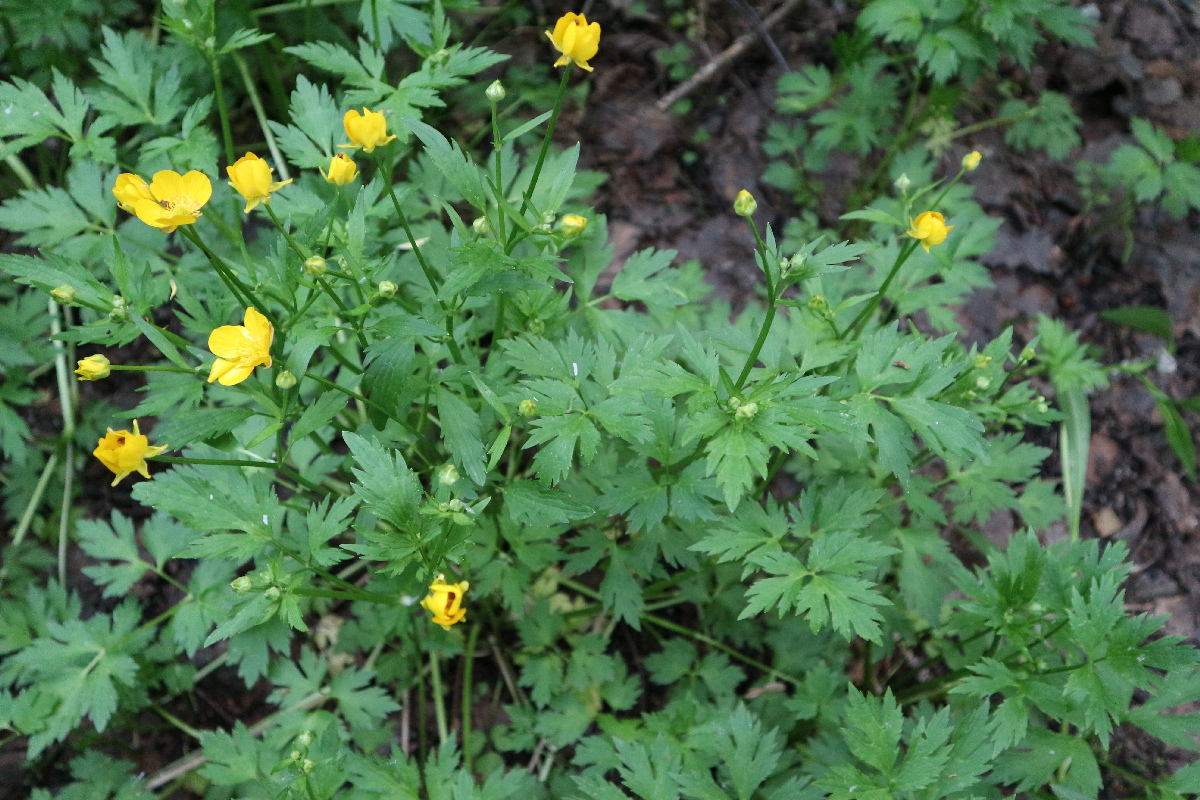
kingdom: Plantae
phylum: Tracheophyta
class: Magnoliopsida
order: Ranunculales
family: Ranunculaceae
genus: Ranunculus
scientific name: Ranunculus repens
